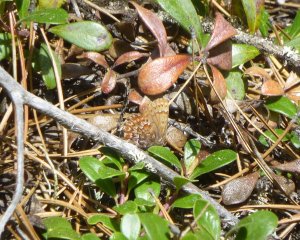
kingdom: Animalia
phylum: Arthropoda
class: Insecta
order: Lepidoptera
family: Lycaenidae
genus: Incisalia
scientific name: Incisalia eryphon
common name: Western Pine Elfin
